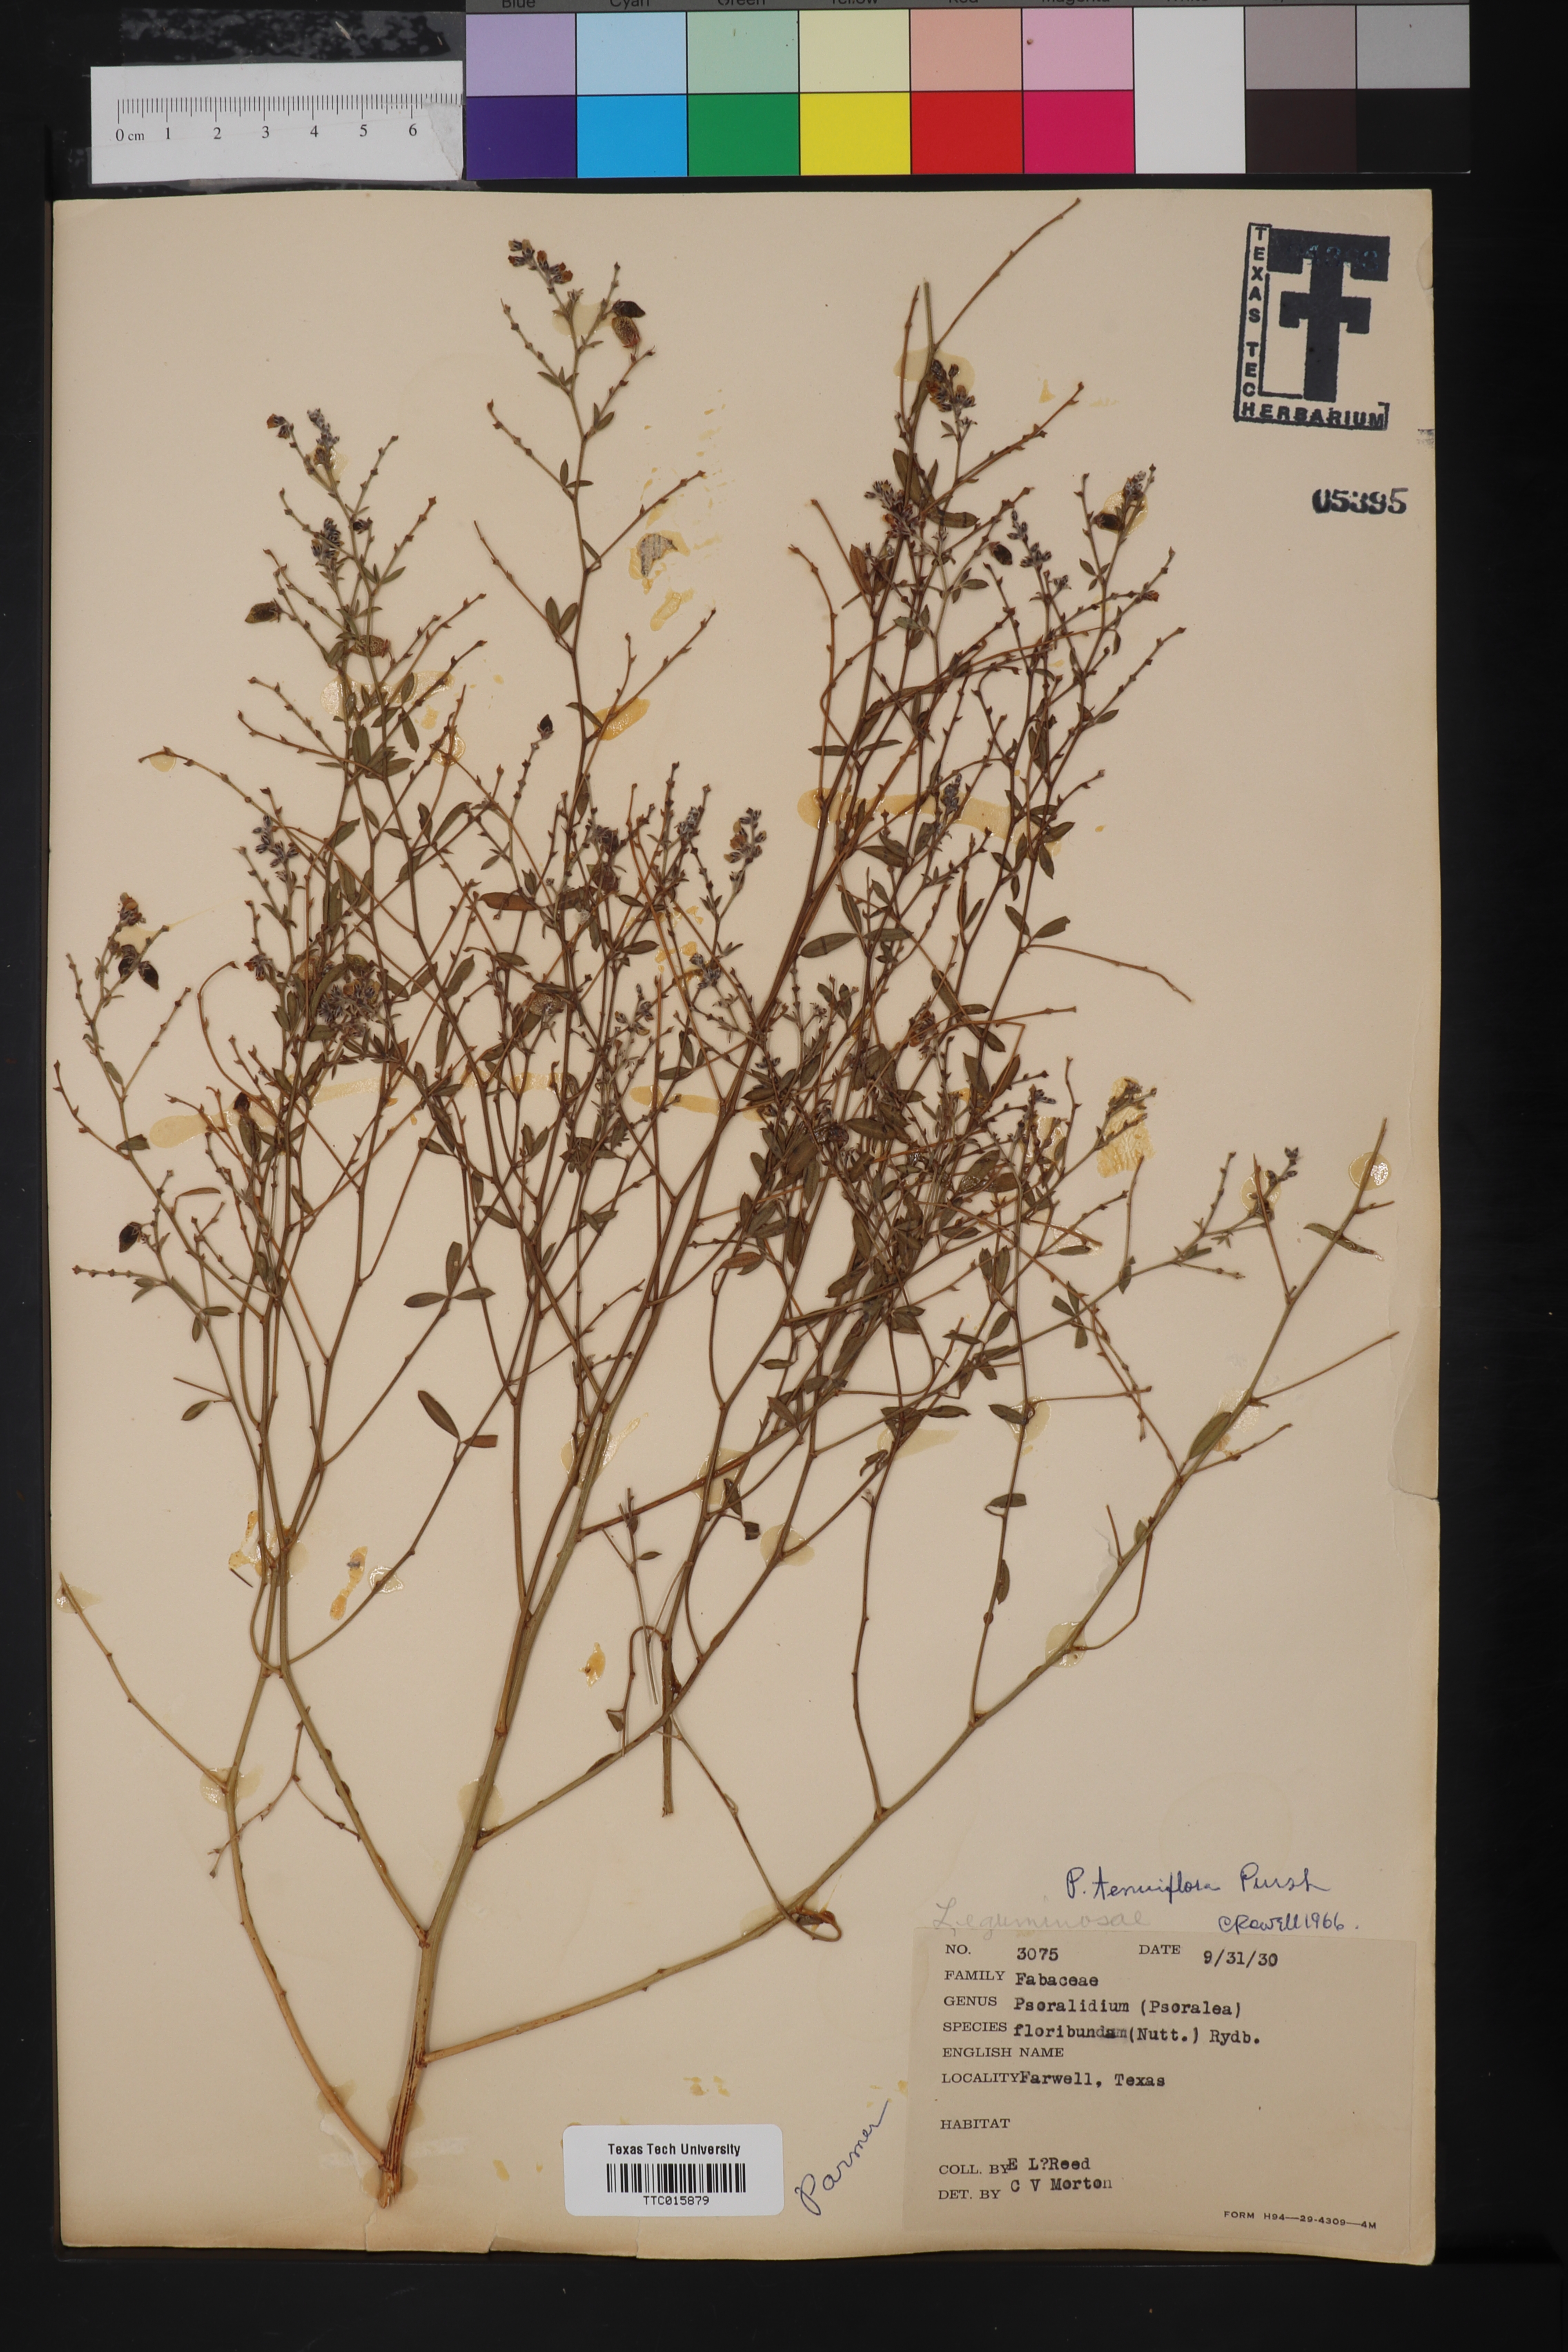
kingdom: Plantae
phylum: Tracheophyta
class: Magnoliopsida
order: Fabales
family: Fabaceae
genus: Pediomelum
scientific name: Pediomelum tenuiflorum
